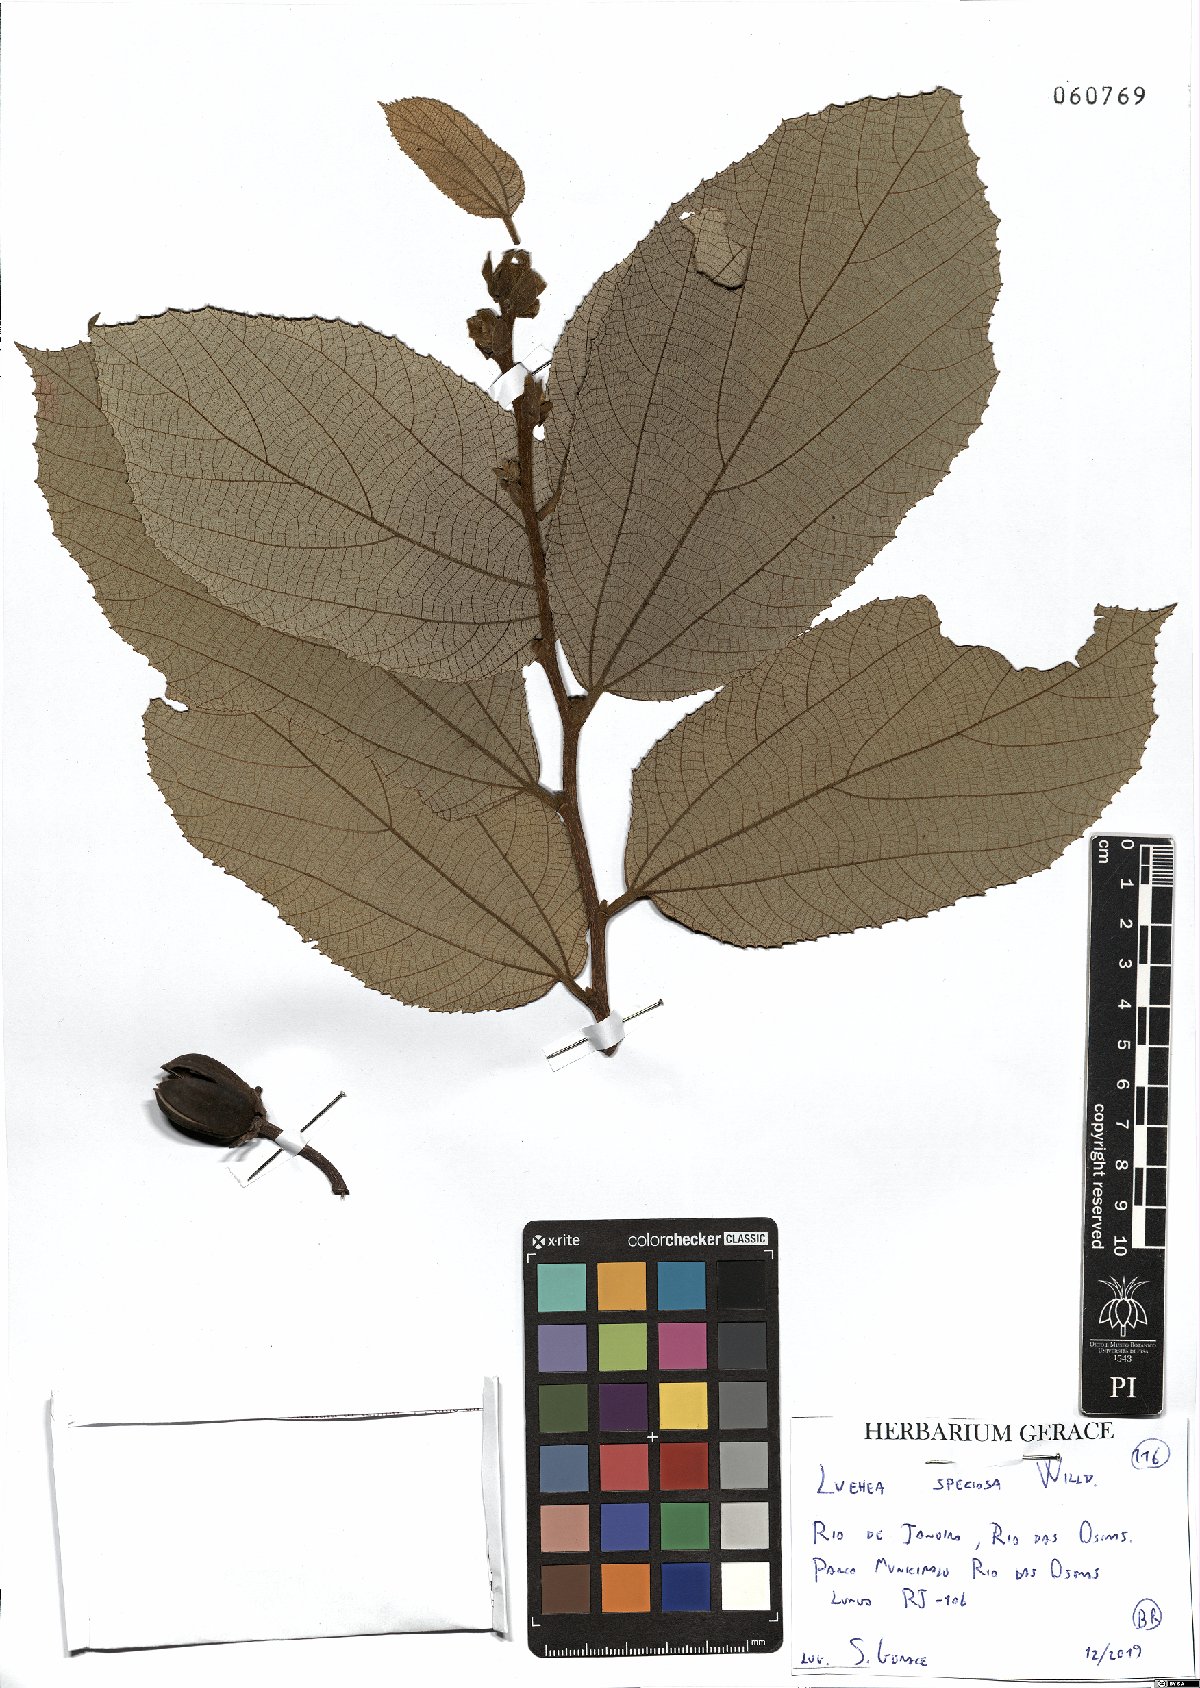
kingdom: Plantae
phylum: Tracheophyta
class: Magnoliopsida
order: Malvales
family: Malvaceae
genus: Luehea
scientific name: Luehea speciosa
